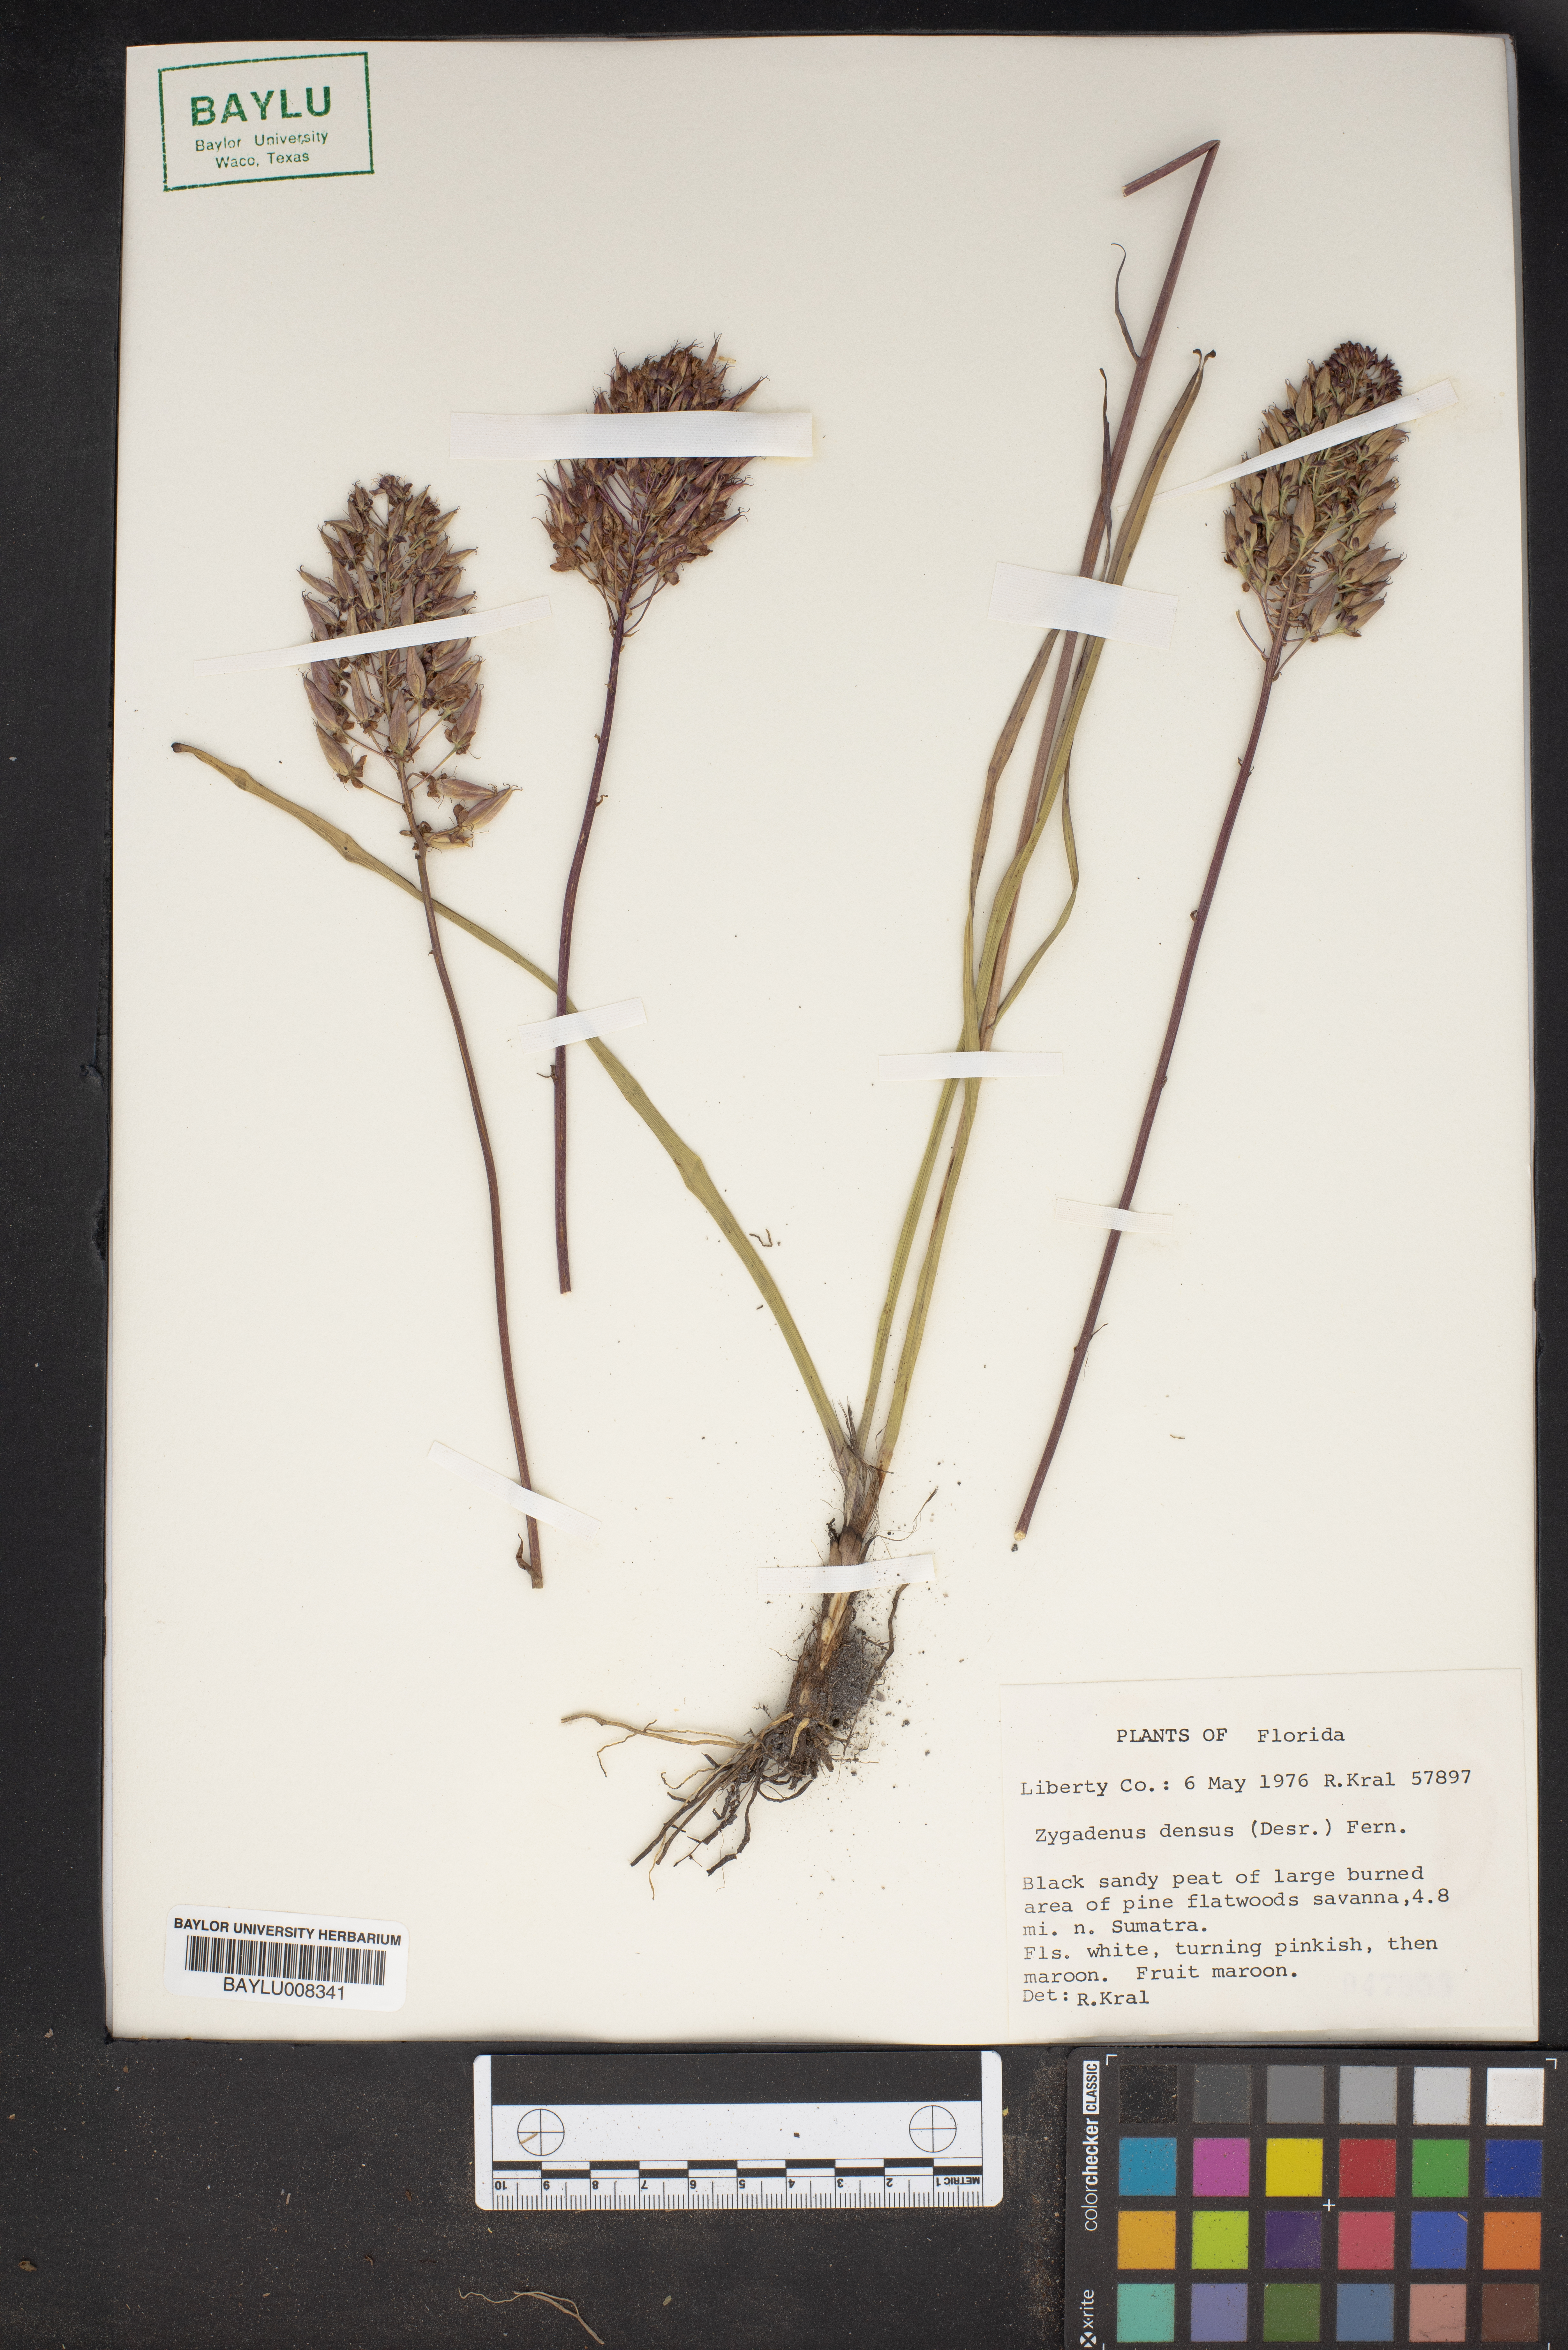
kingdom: Plantae
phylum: Tracheophyta
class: Liliopsida
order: Liliales
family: Melanthiaceae
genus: Stenanthium
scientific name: Stenanthium densum
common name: Crow-poison
